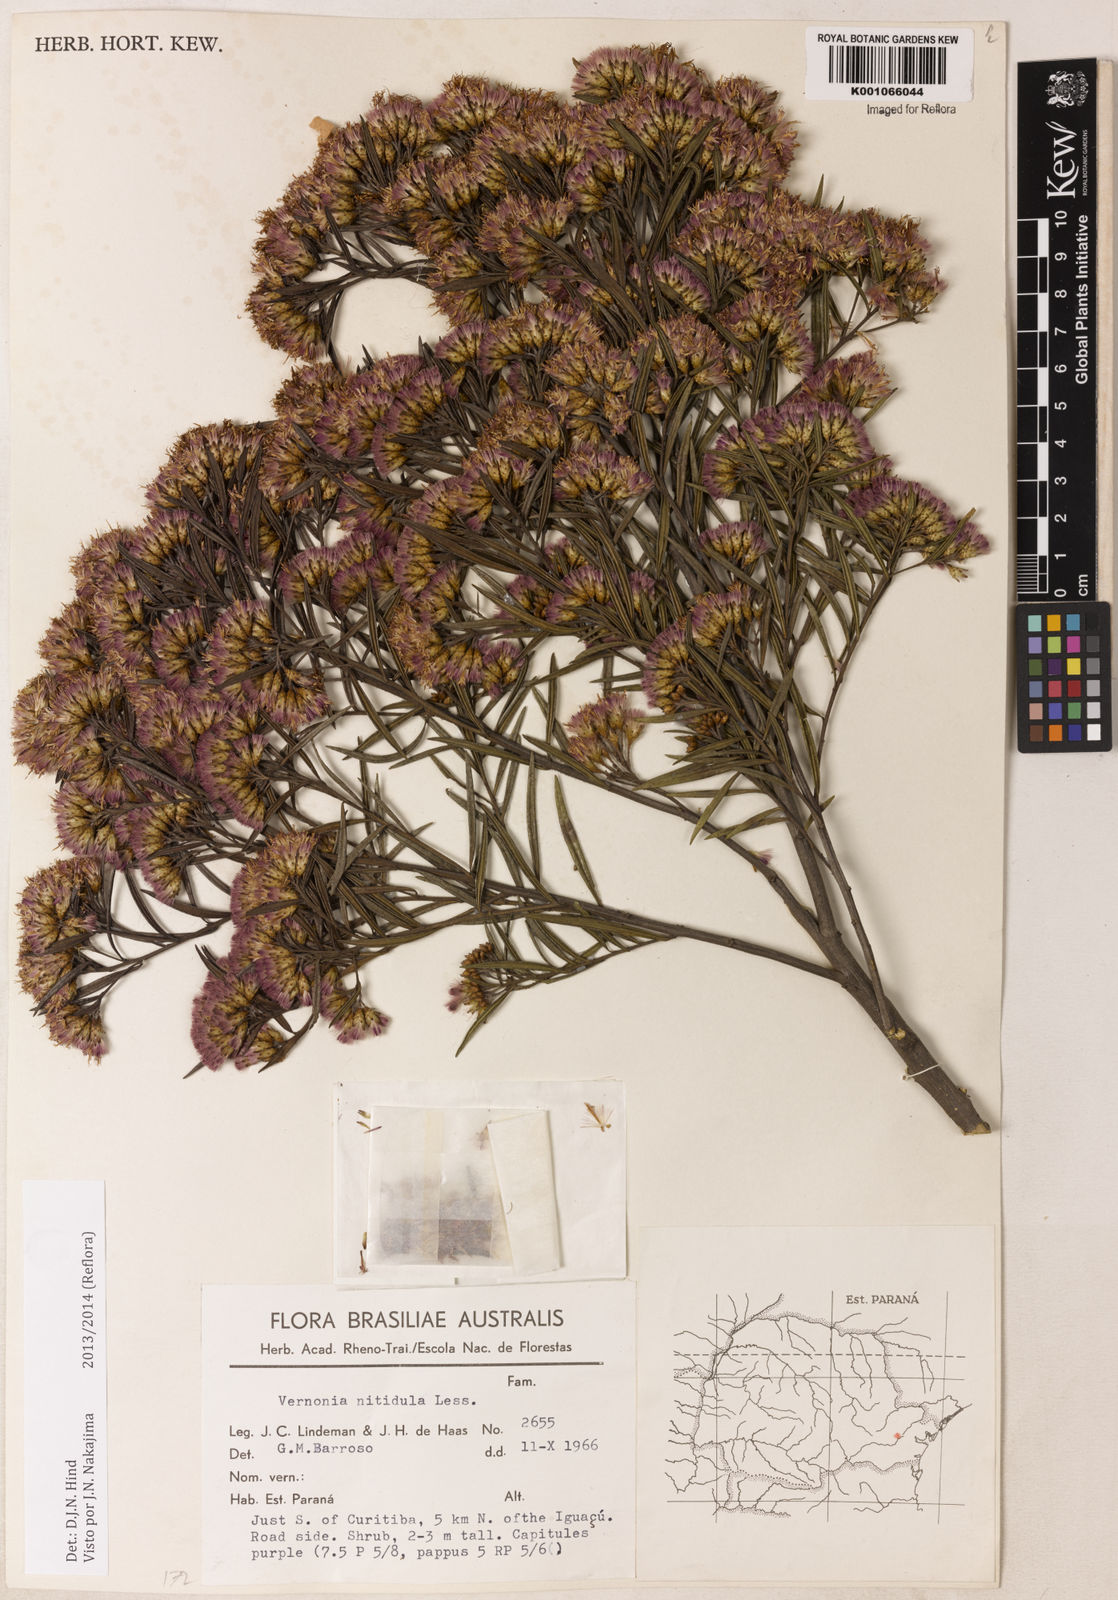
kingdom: Plantae
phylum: Tracheophyta
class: Magnoliopsida
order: Asterales
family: Asteraceae
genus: Vernonanthura
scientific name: Vernonanthura montevidensis
